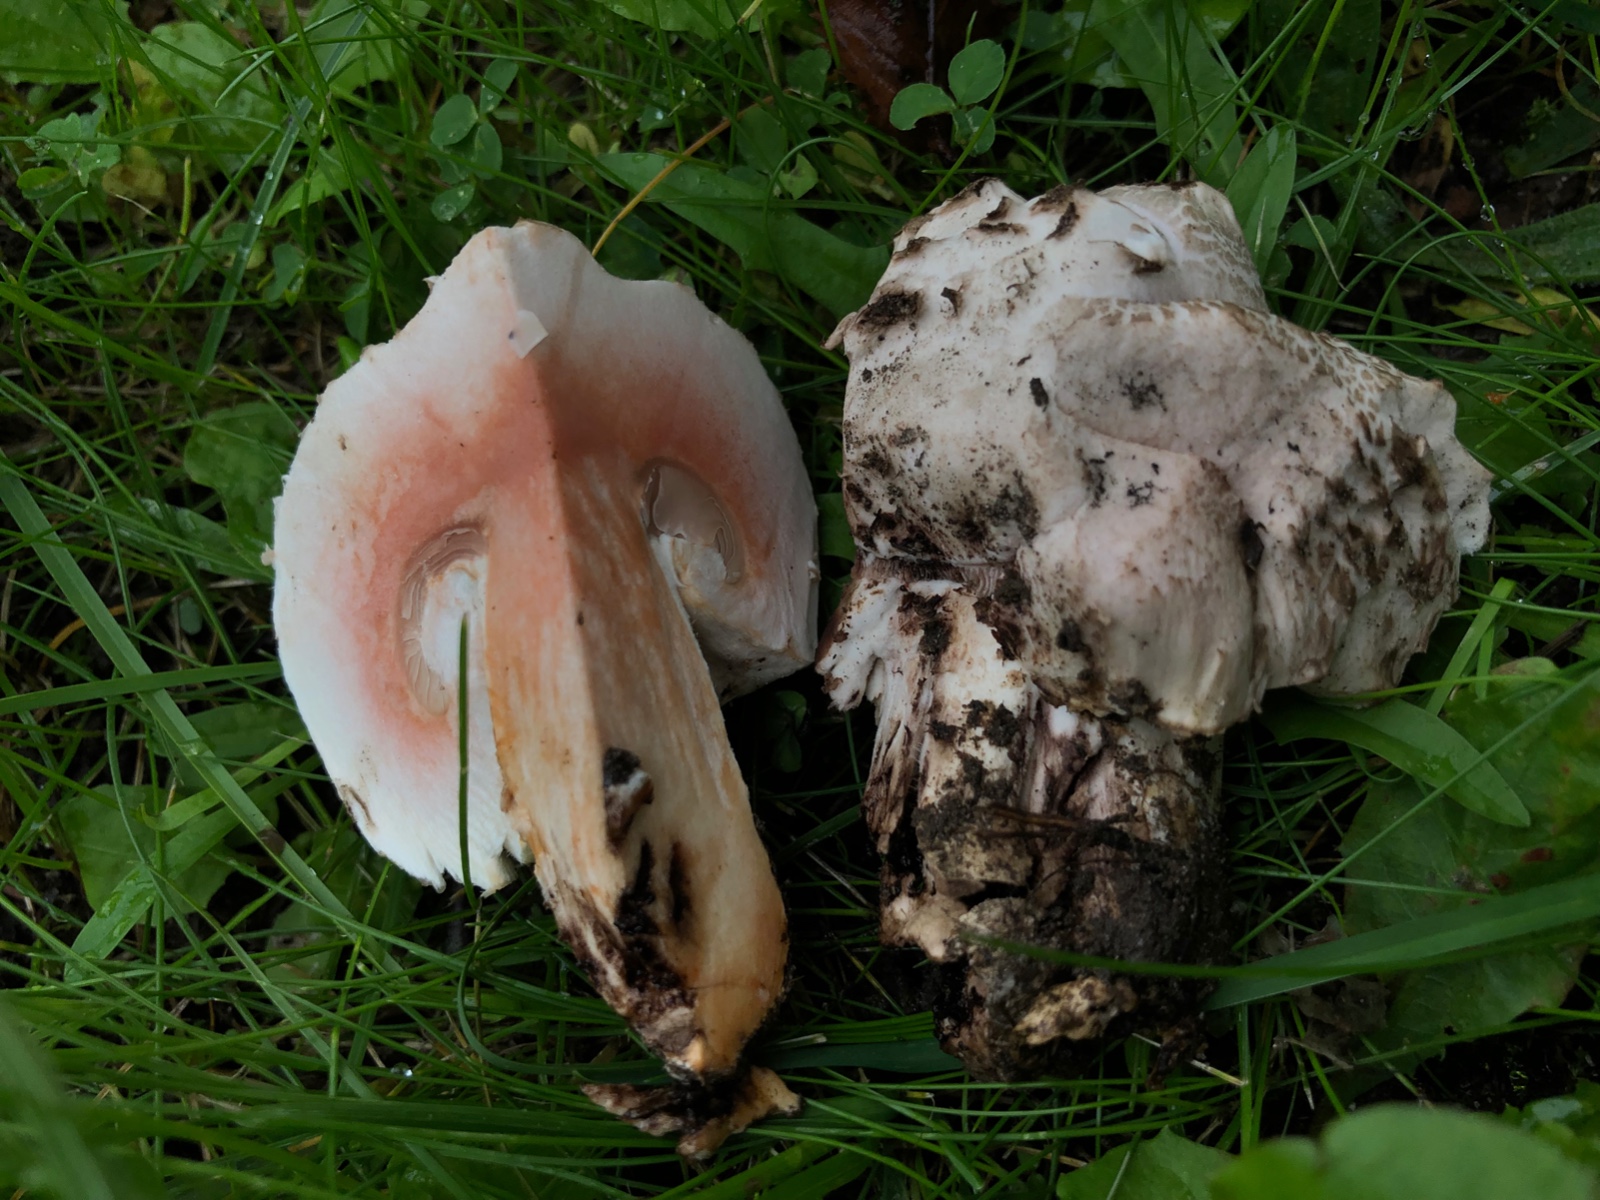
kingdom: Fungi
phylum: Basidiomycota
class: Agaricomycetes
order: Agaricales
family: Agaricaceae
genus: Agaricus
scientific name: Agaricus bernardii
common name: strandengs-champignon
